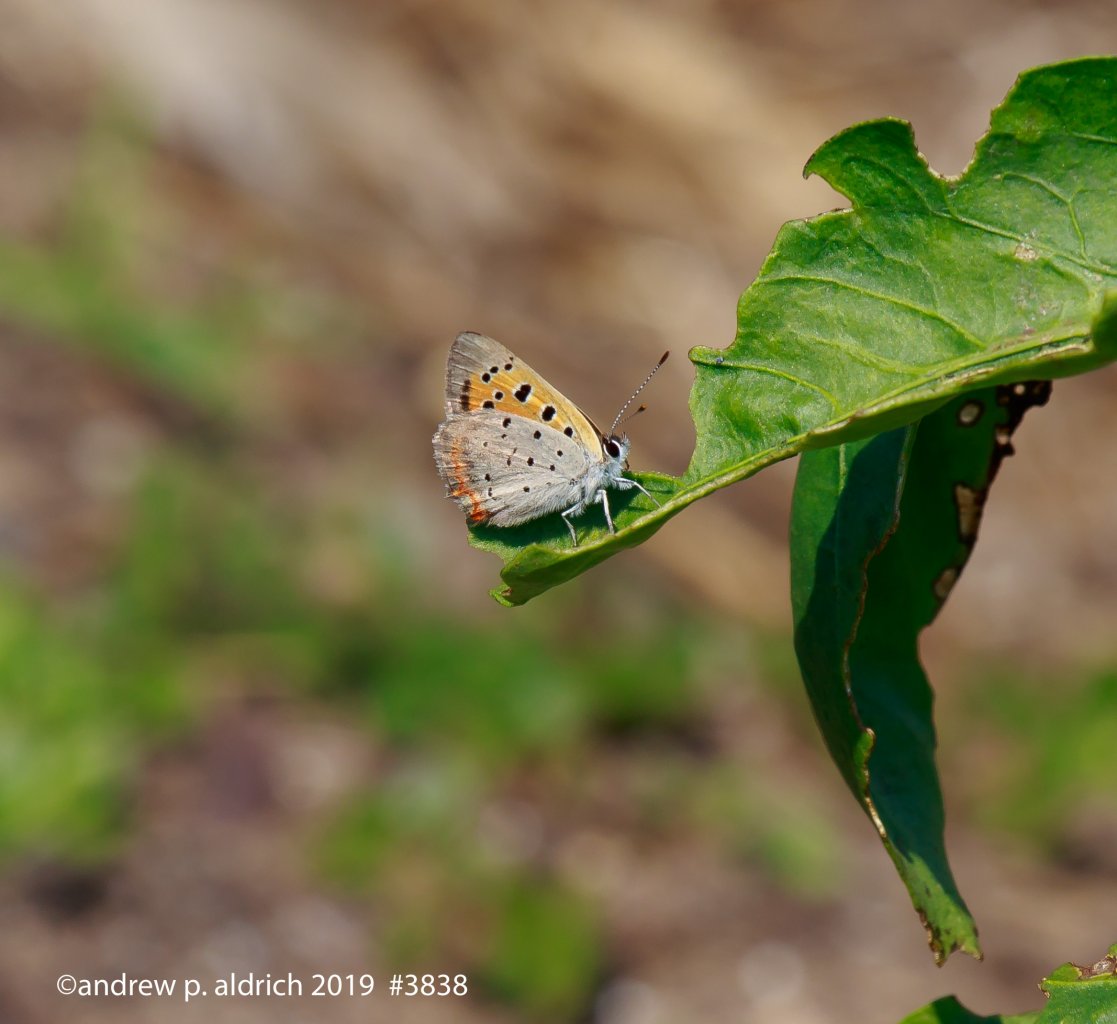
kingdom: Animalia
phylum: Arthropoda
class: Insecta
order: Lepidoptera
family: Lycaenidae
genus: Lycaena
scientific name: Lycaena phlaeas
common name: American Copper
